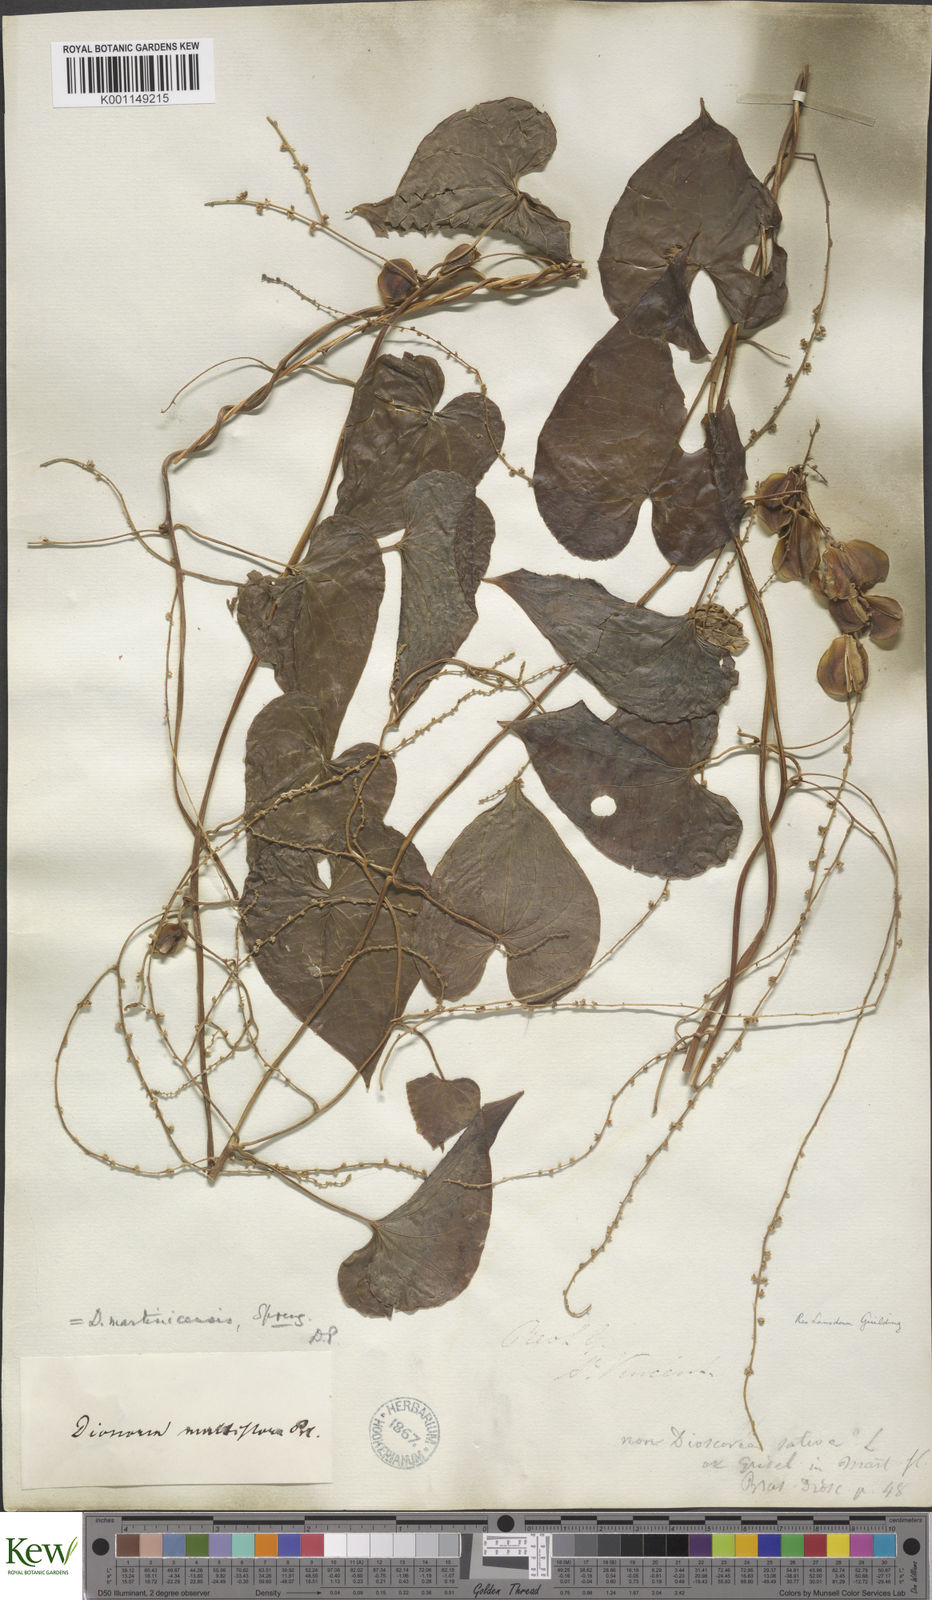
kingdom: Plantae
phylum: Tracheophyta
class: Liliopsida
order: Dioscoreales
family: Dioscoreaceae
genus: Dioscorea
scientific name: Dioscorea polygonoides
